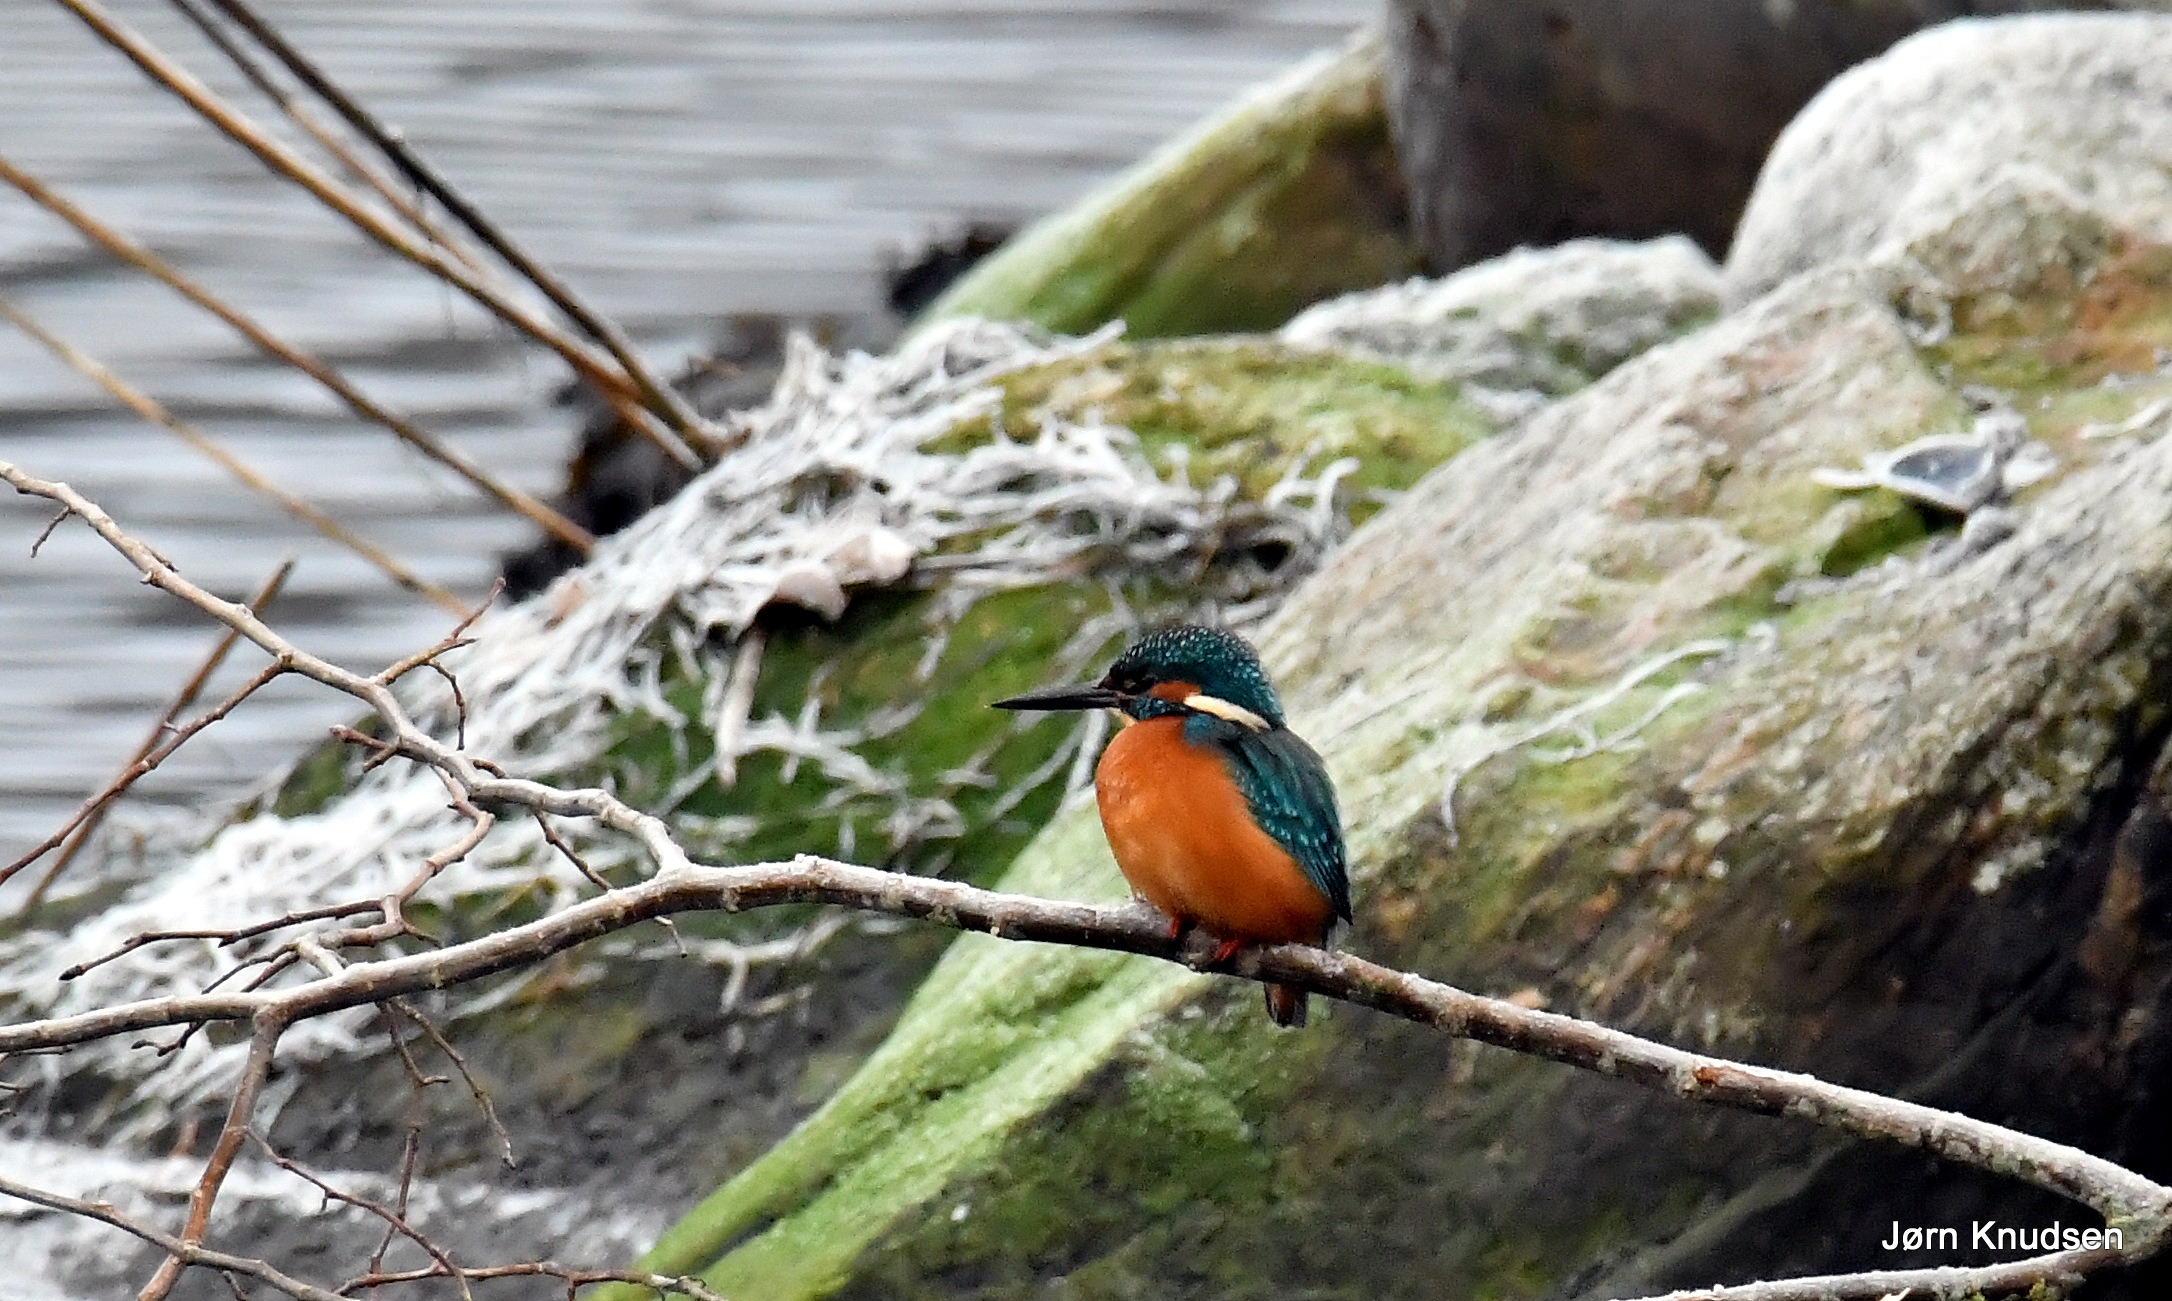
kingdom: Animalia
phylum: Chordata
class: Aves
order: Coraciiformes
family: Alcedinidae
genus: Alcedo
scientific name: Alcedo atthis
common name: Isfugl
